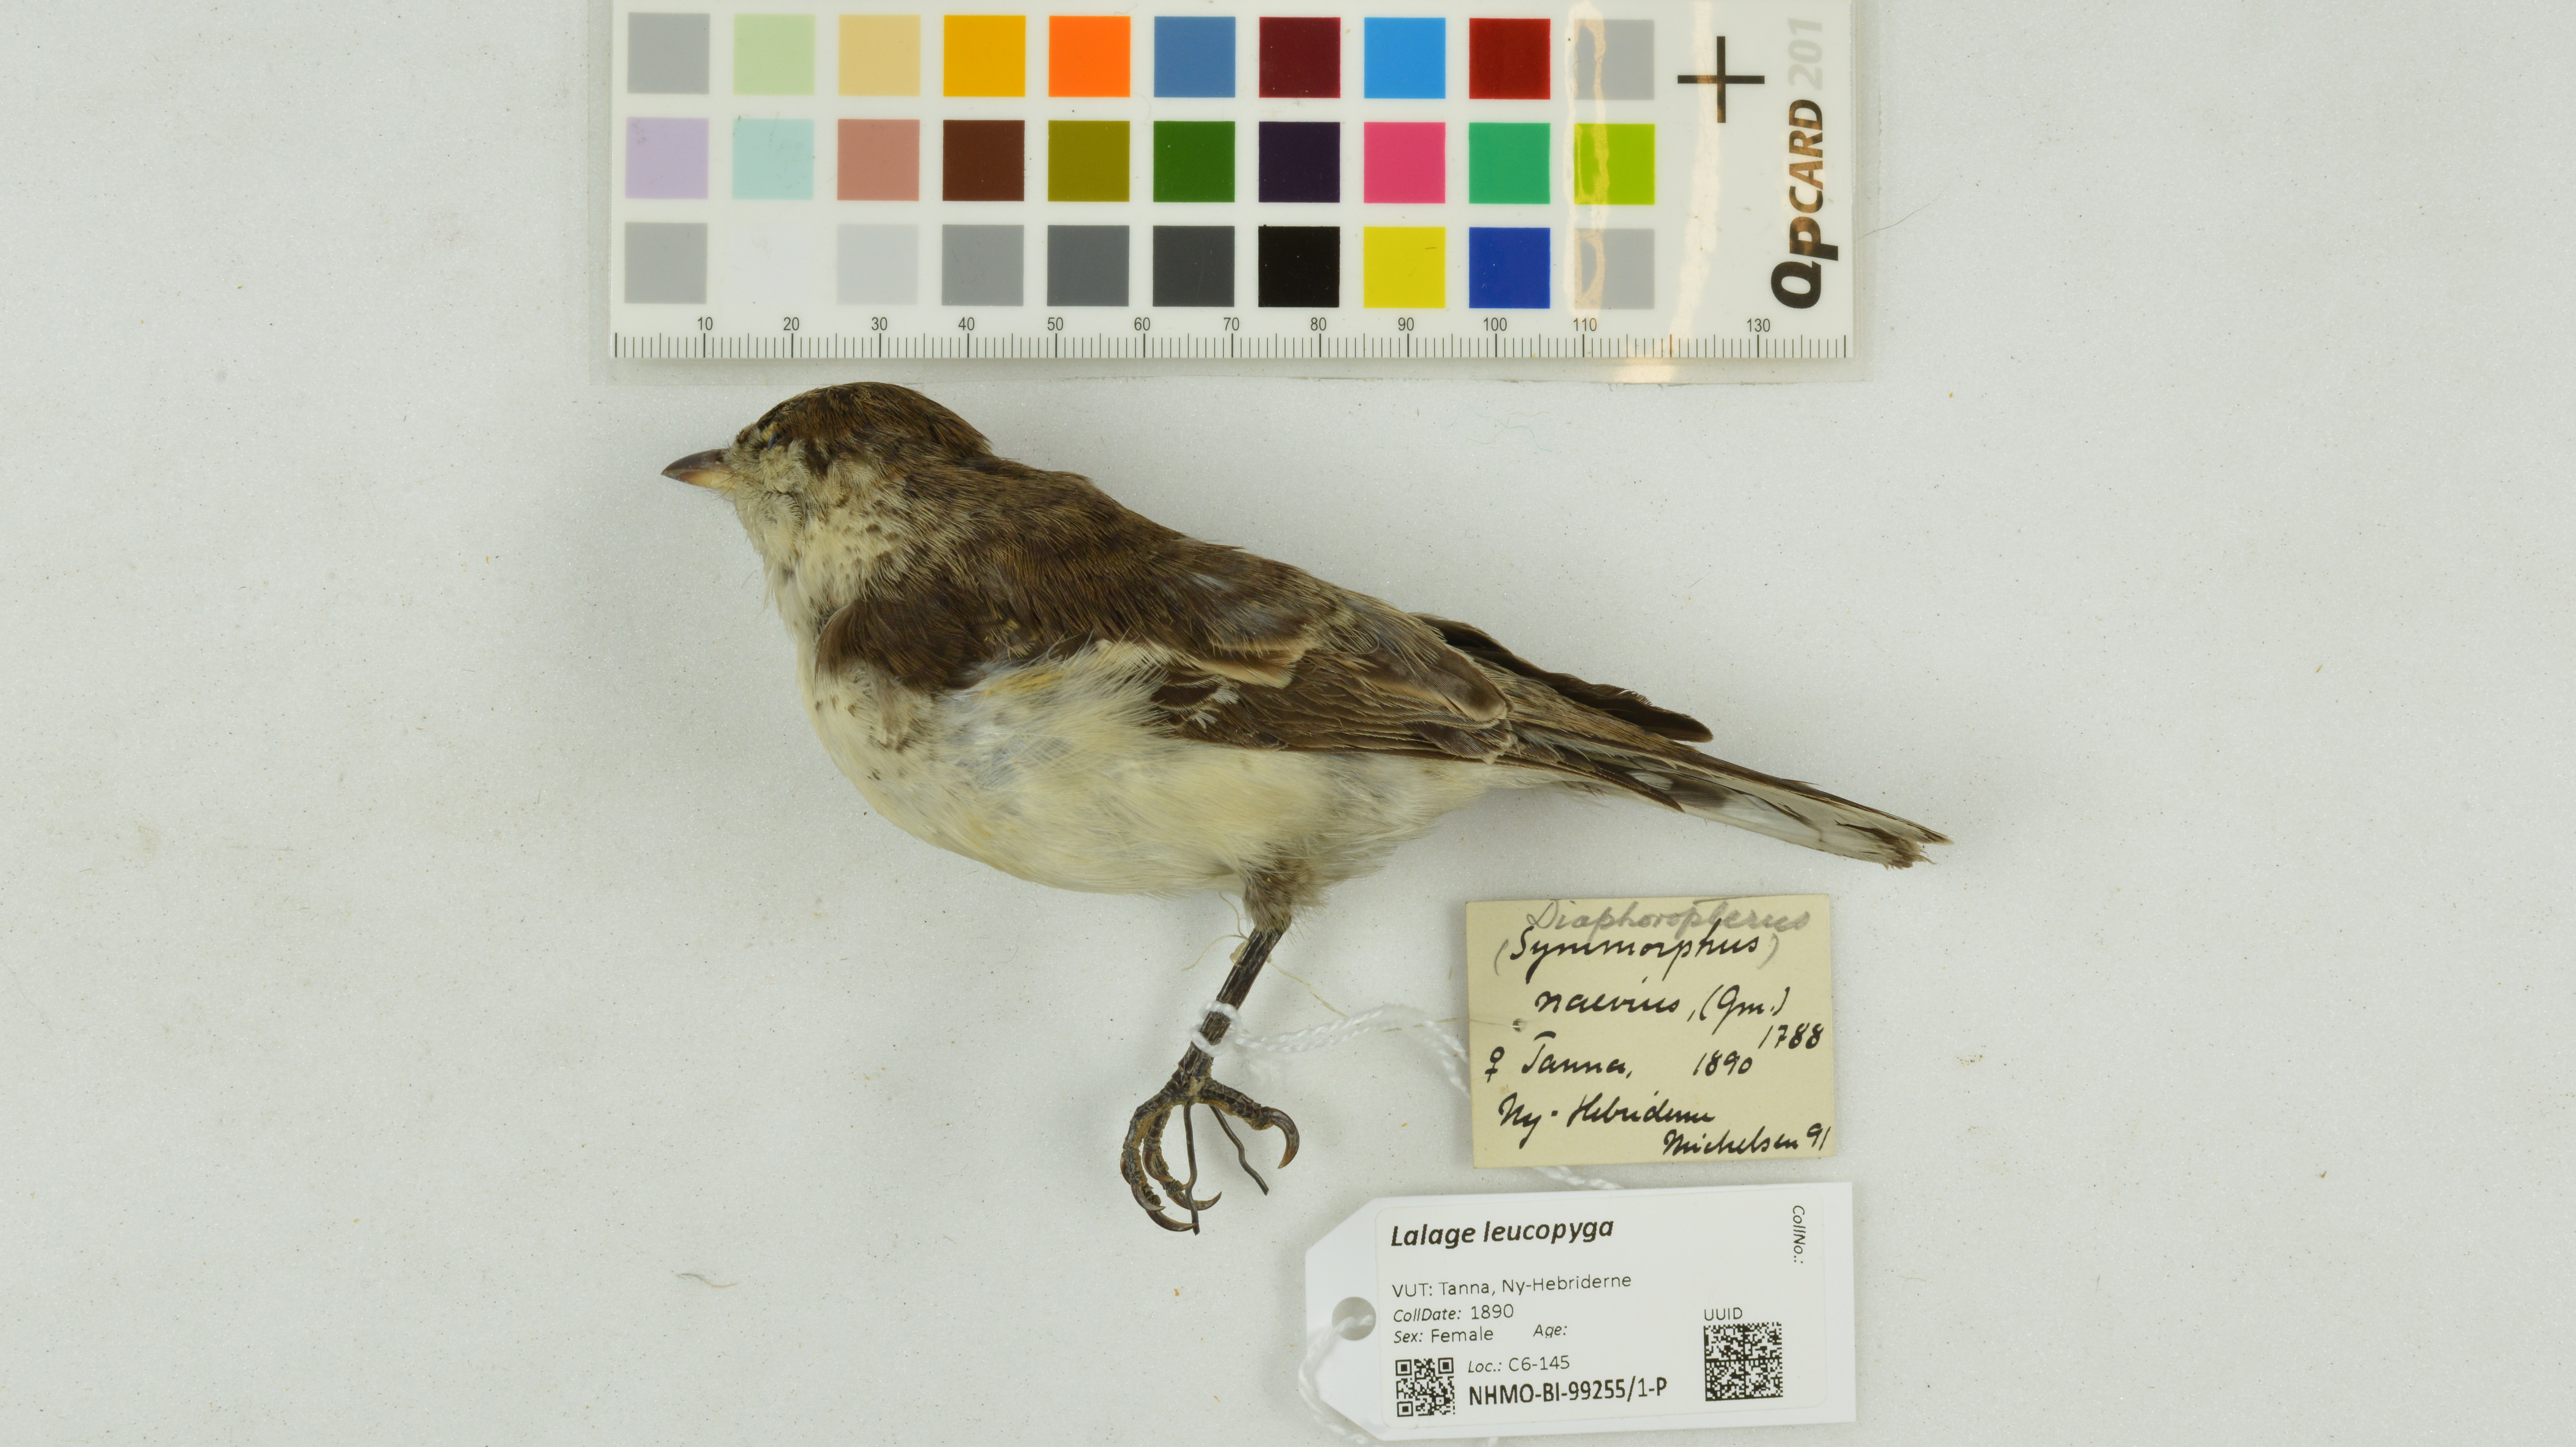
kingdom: Animalia
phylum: Chordata
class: Aves
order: Passeriformes
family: Campephagidae
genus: Lalage
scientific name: Lalage leucopyga
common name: Long-tailed triller
